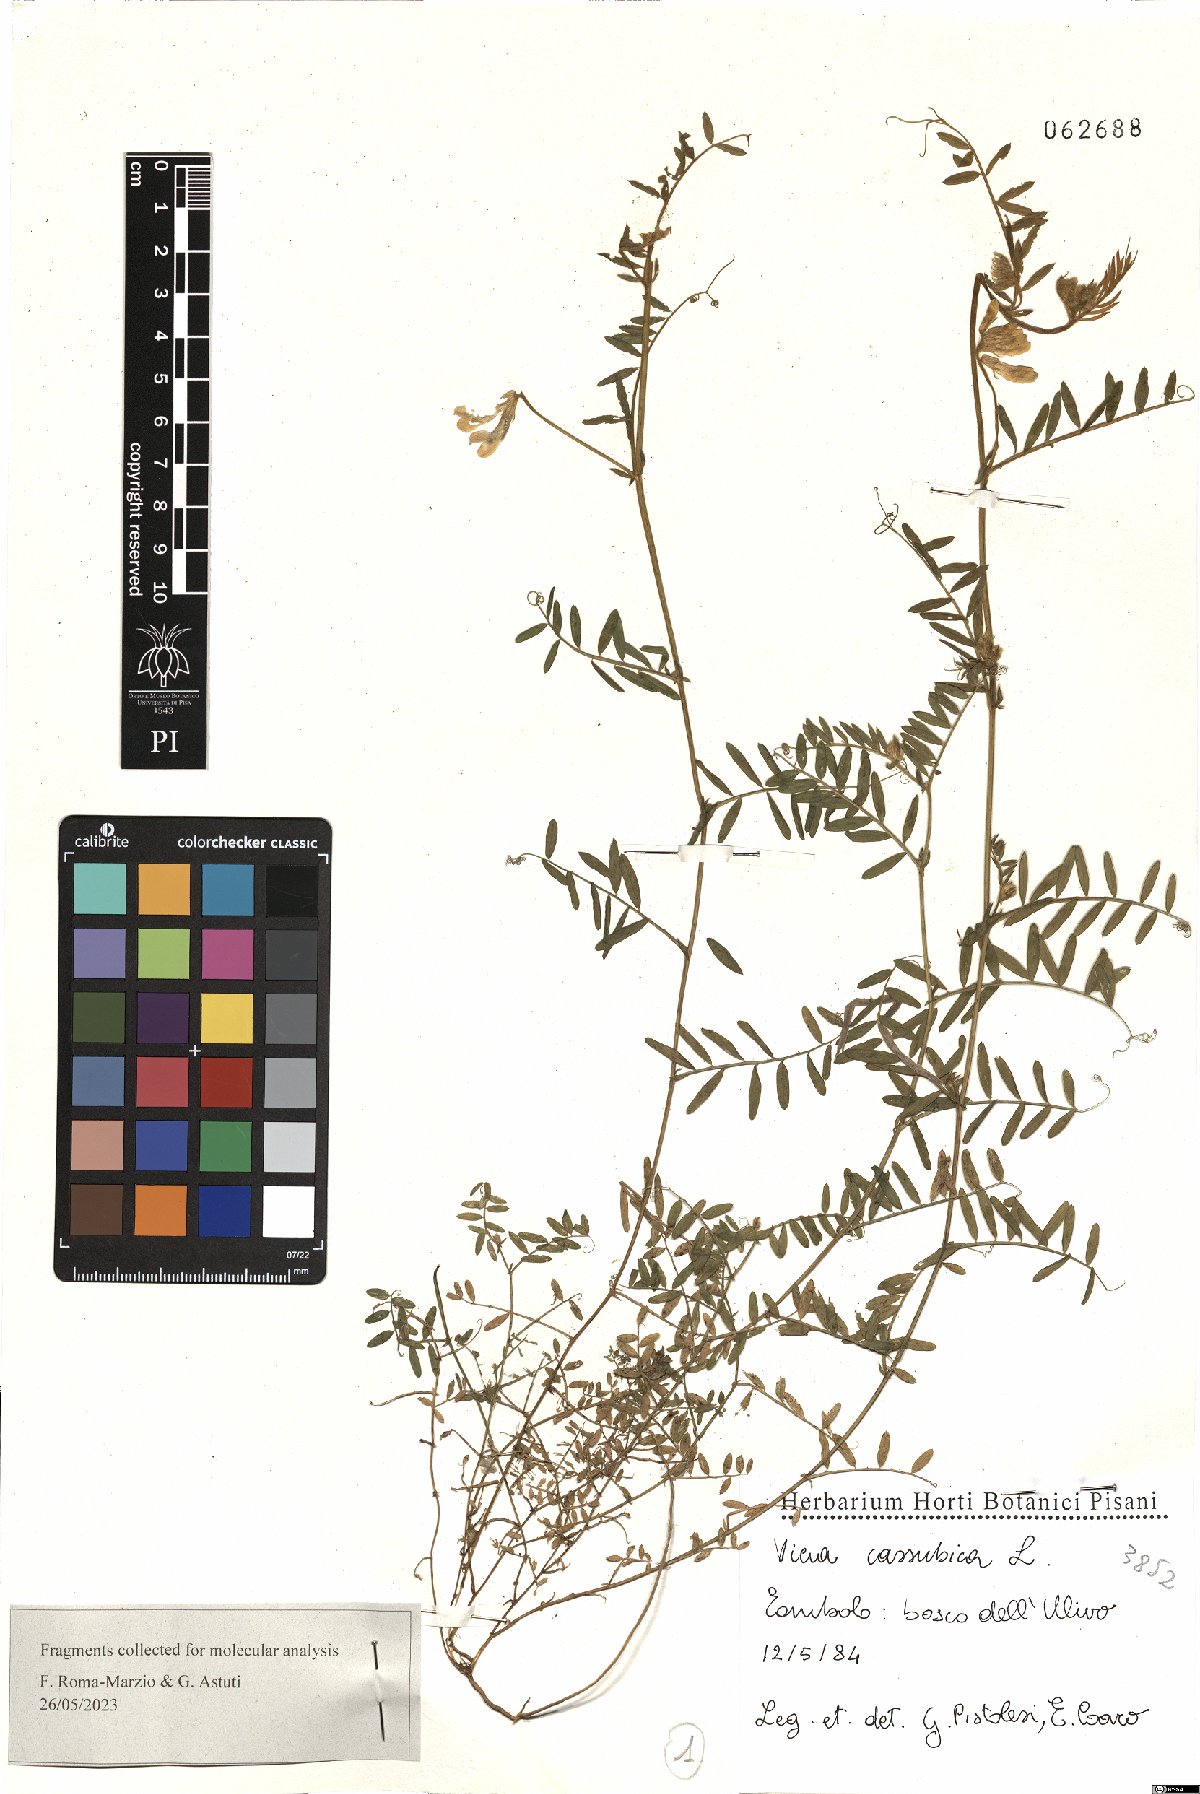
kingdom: Plantae
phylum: Tracheophyta
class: Magnoliopsida
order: Fabales
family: Fabaceae
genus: Vicia
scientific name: Vicia cassubica
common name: Danzig vetch
